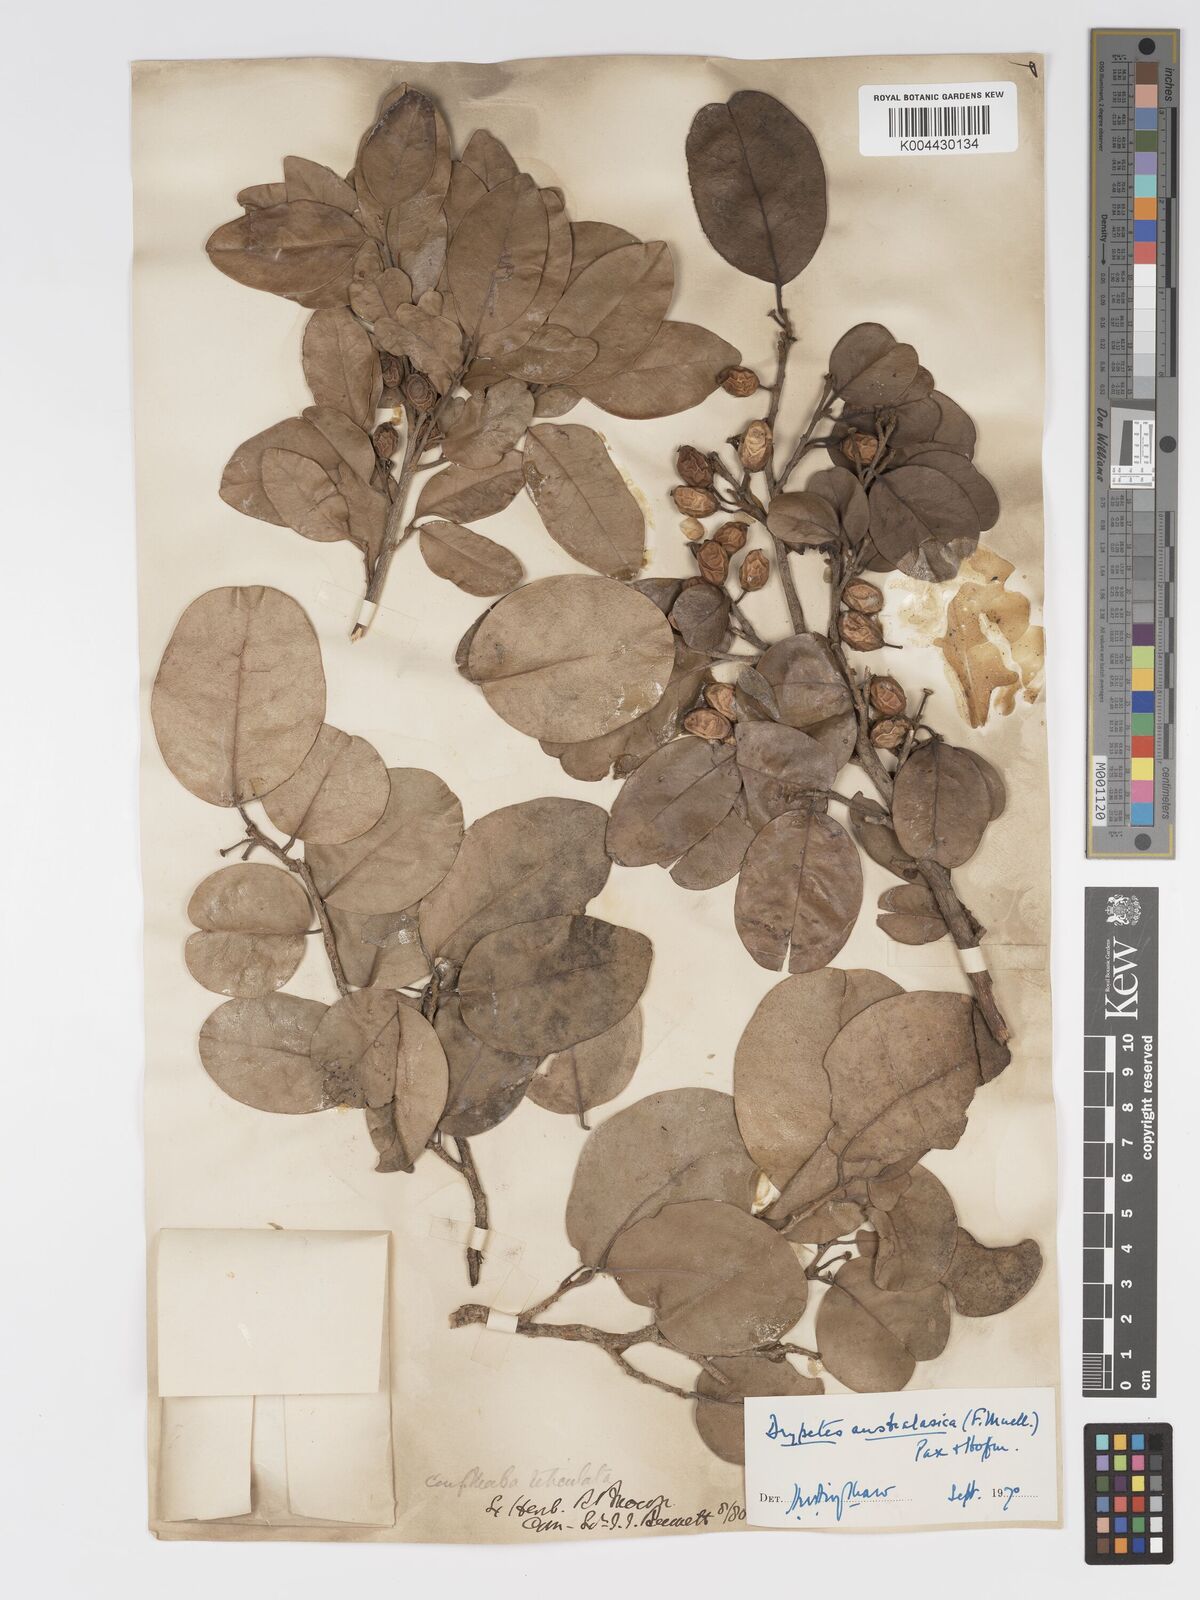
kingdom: Plantae
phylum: Tracheophyta
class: Magnoliopsida
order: Malpighiales
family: Putranjivaceae
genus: Drypetes
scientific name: Drypetes deplanchei
